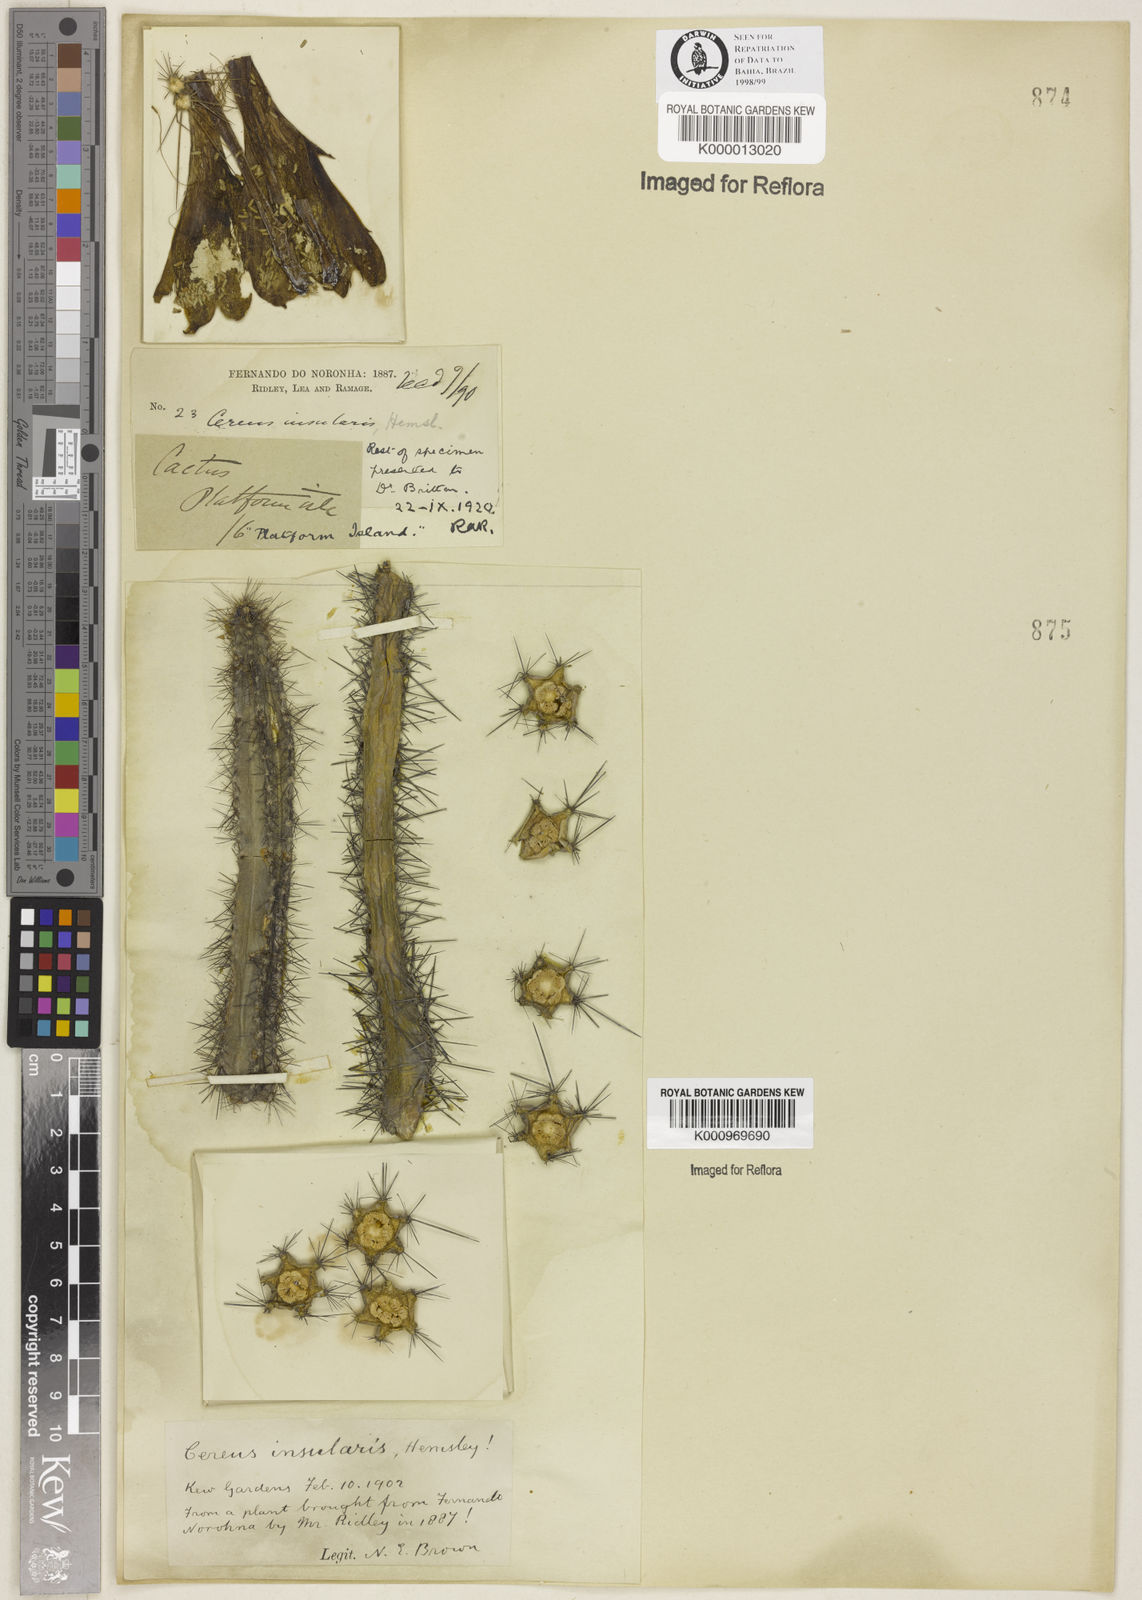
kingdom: Plantae
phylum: Tracheophyta
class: Magnoliopsida
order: Caryophyllales
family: Cactaceae
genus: Cipocereus
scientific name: Cipocereus minensis
